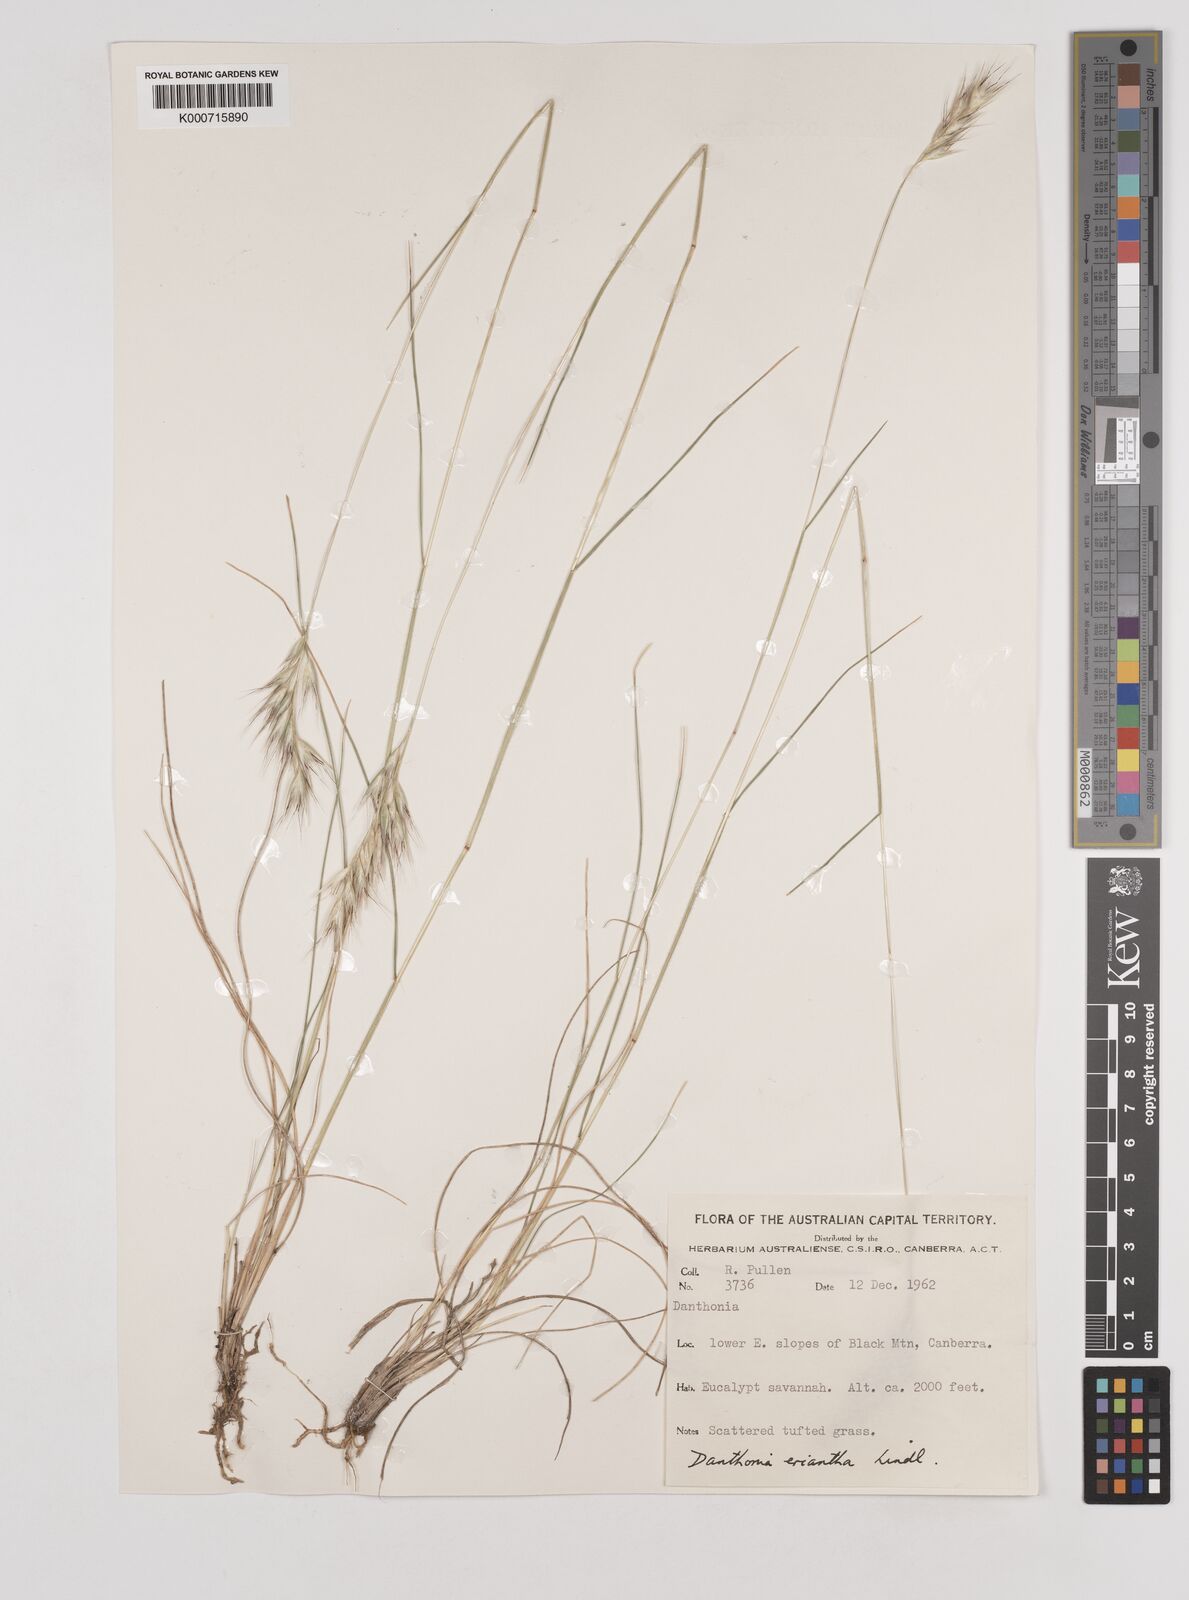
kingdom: Plantae
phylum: Tracheophyta
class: Liliopsida
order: Poales
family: Poaceae
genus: Rytidosperma
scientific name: Rytidosperma erianthum
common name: Hill wallaby grass
